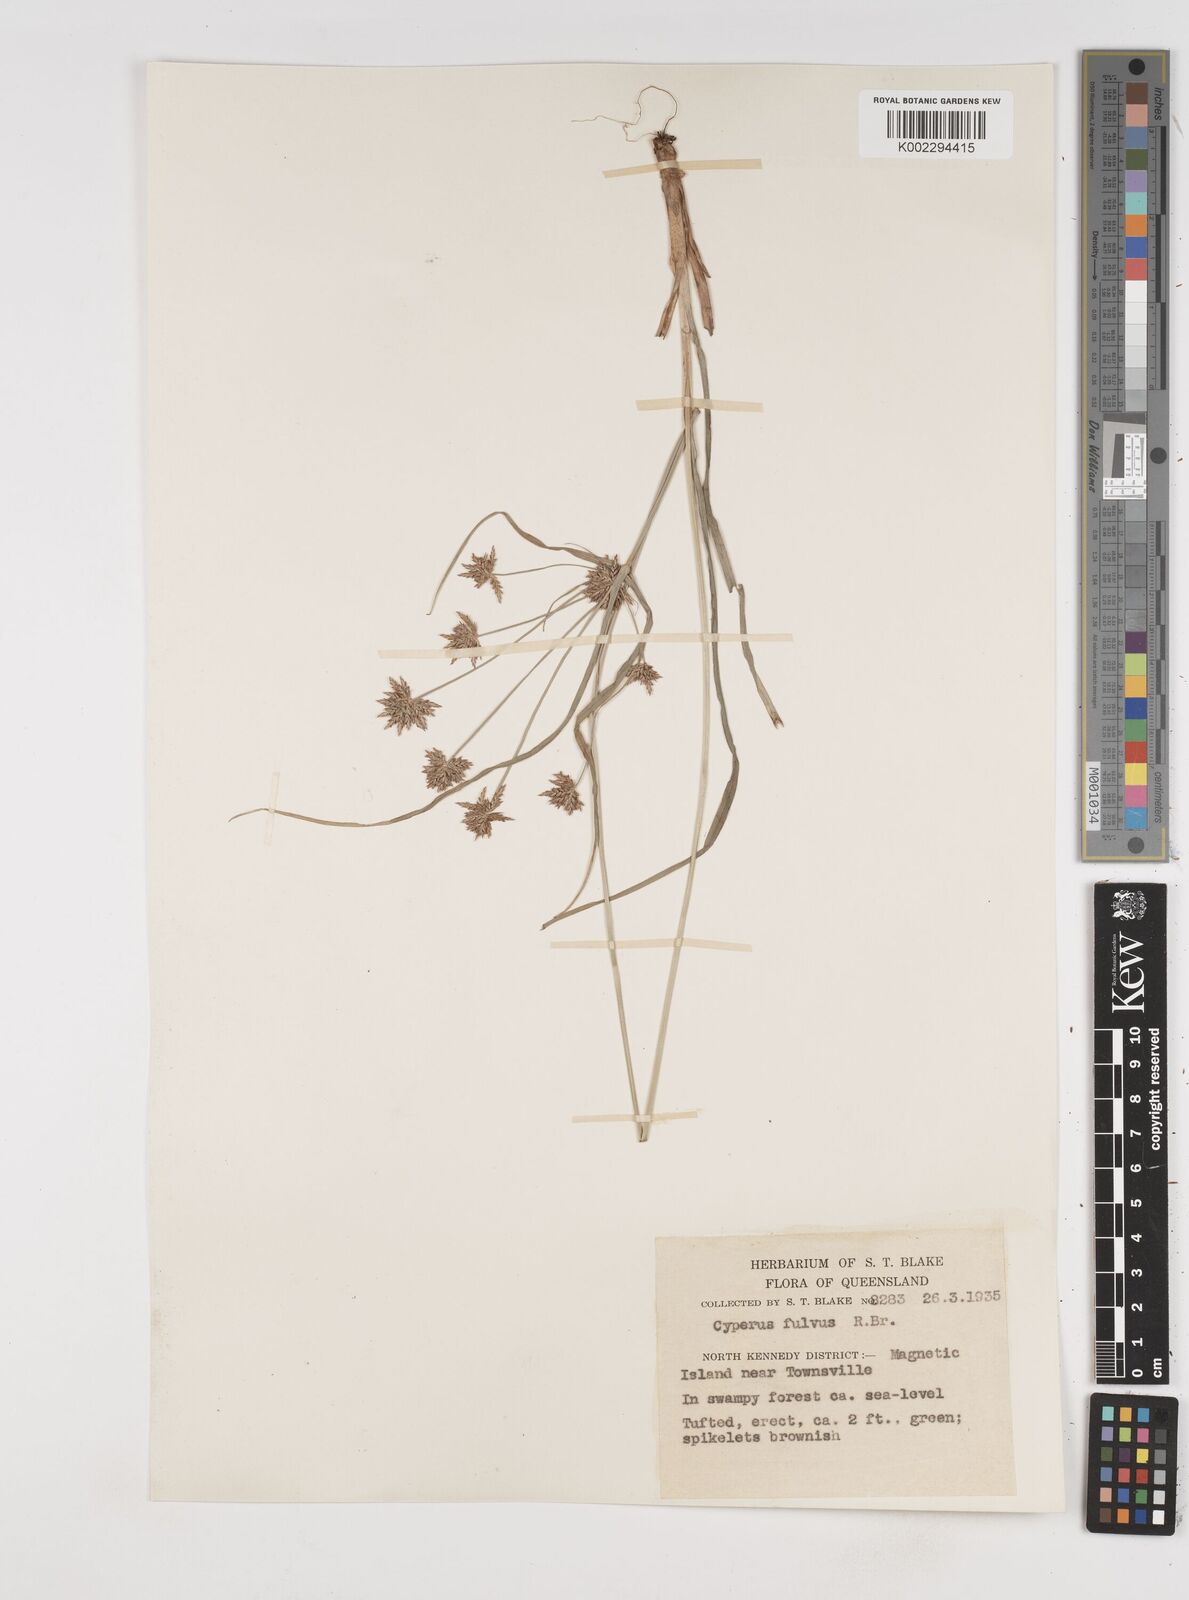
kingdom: Plantae
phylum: Tracheophyta
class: Liliopsida
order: Poales
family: Cyperaceae
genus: Cyperus
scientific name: Cyperus fulvus
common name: Sticky sedge
